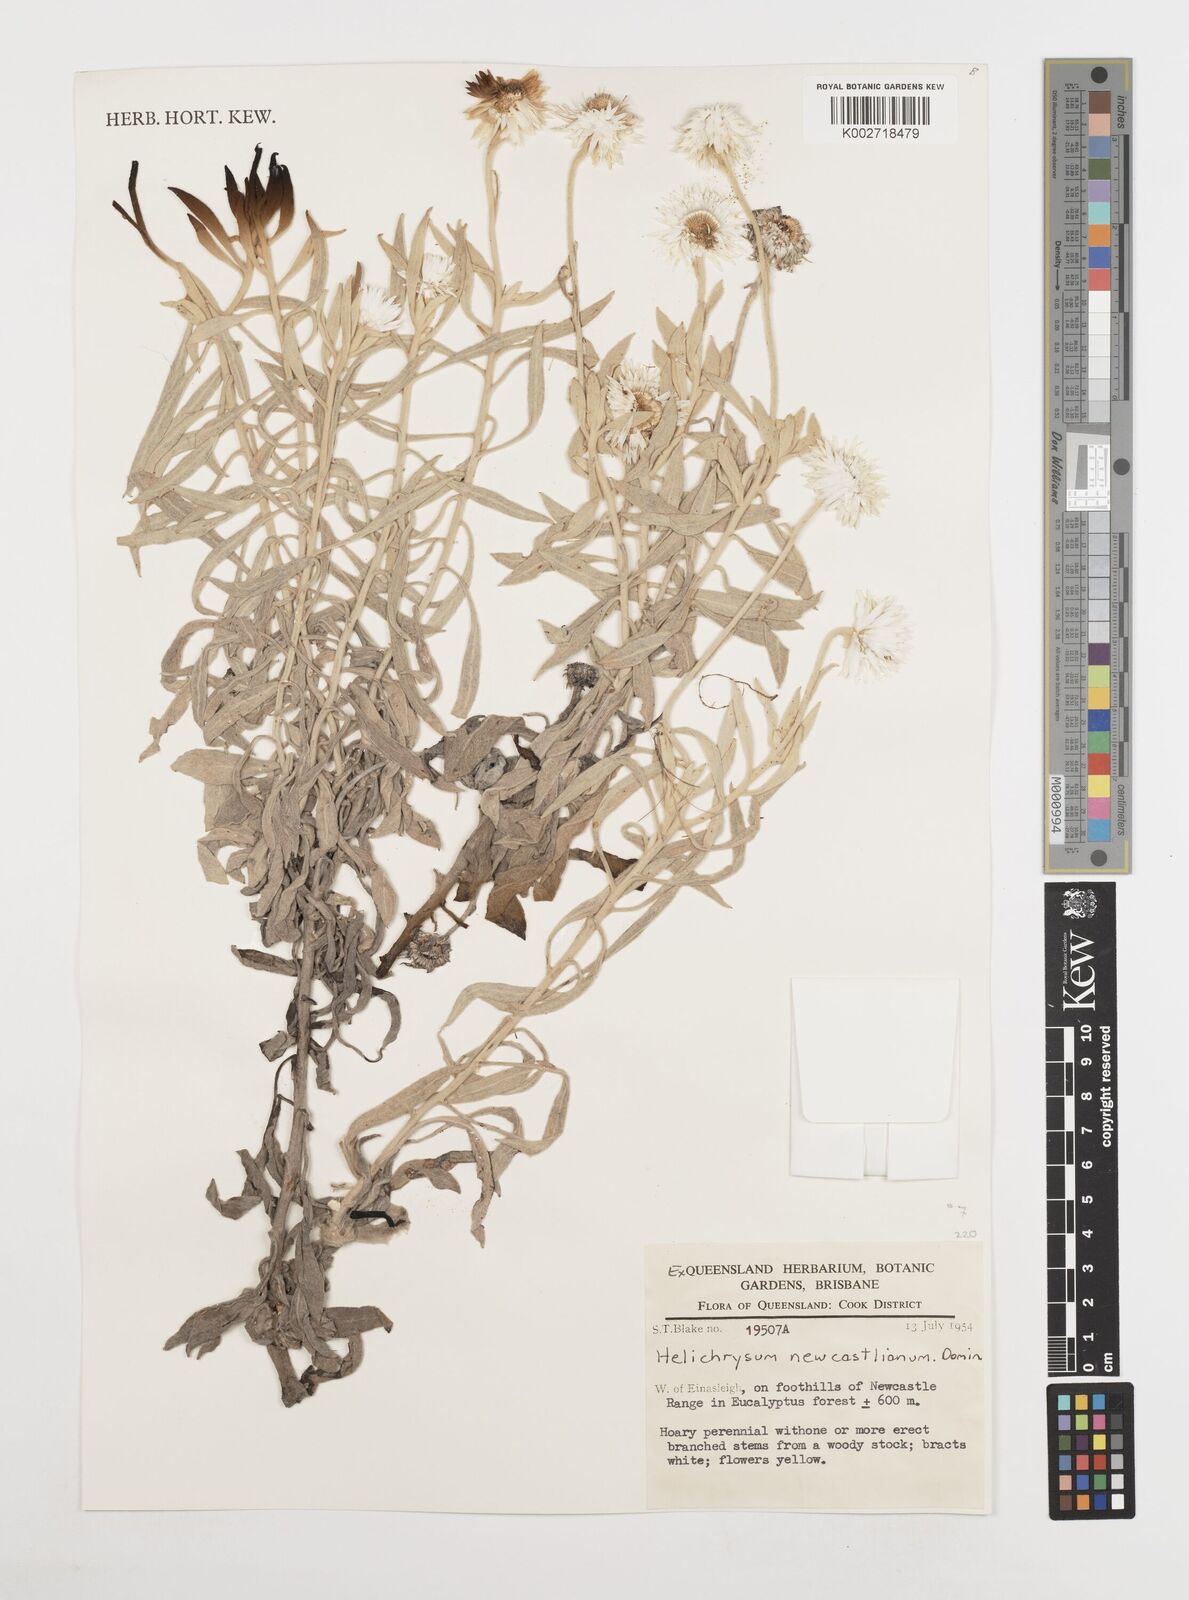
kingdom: Plantae
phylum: Tracheophyta
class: Magnoliopsida
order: Asterales
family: Asteraceae
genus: Coronidium
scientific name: Coronidium newcastlianum
